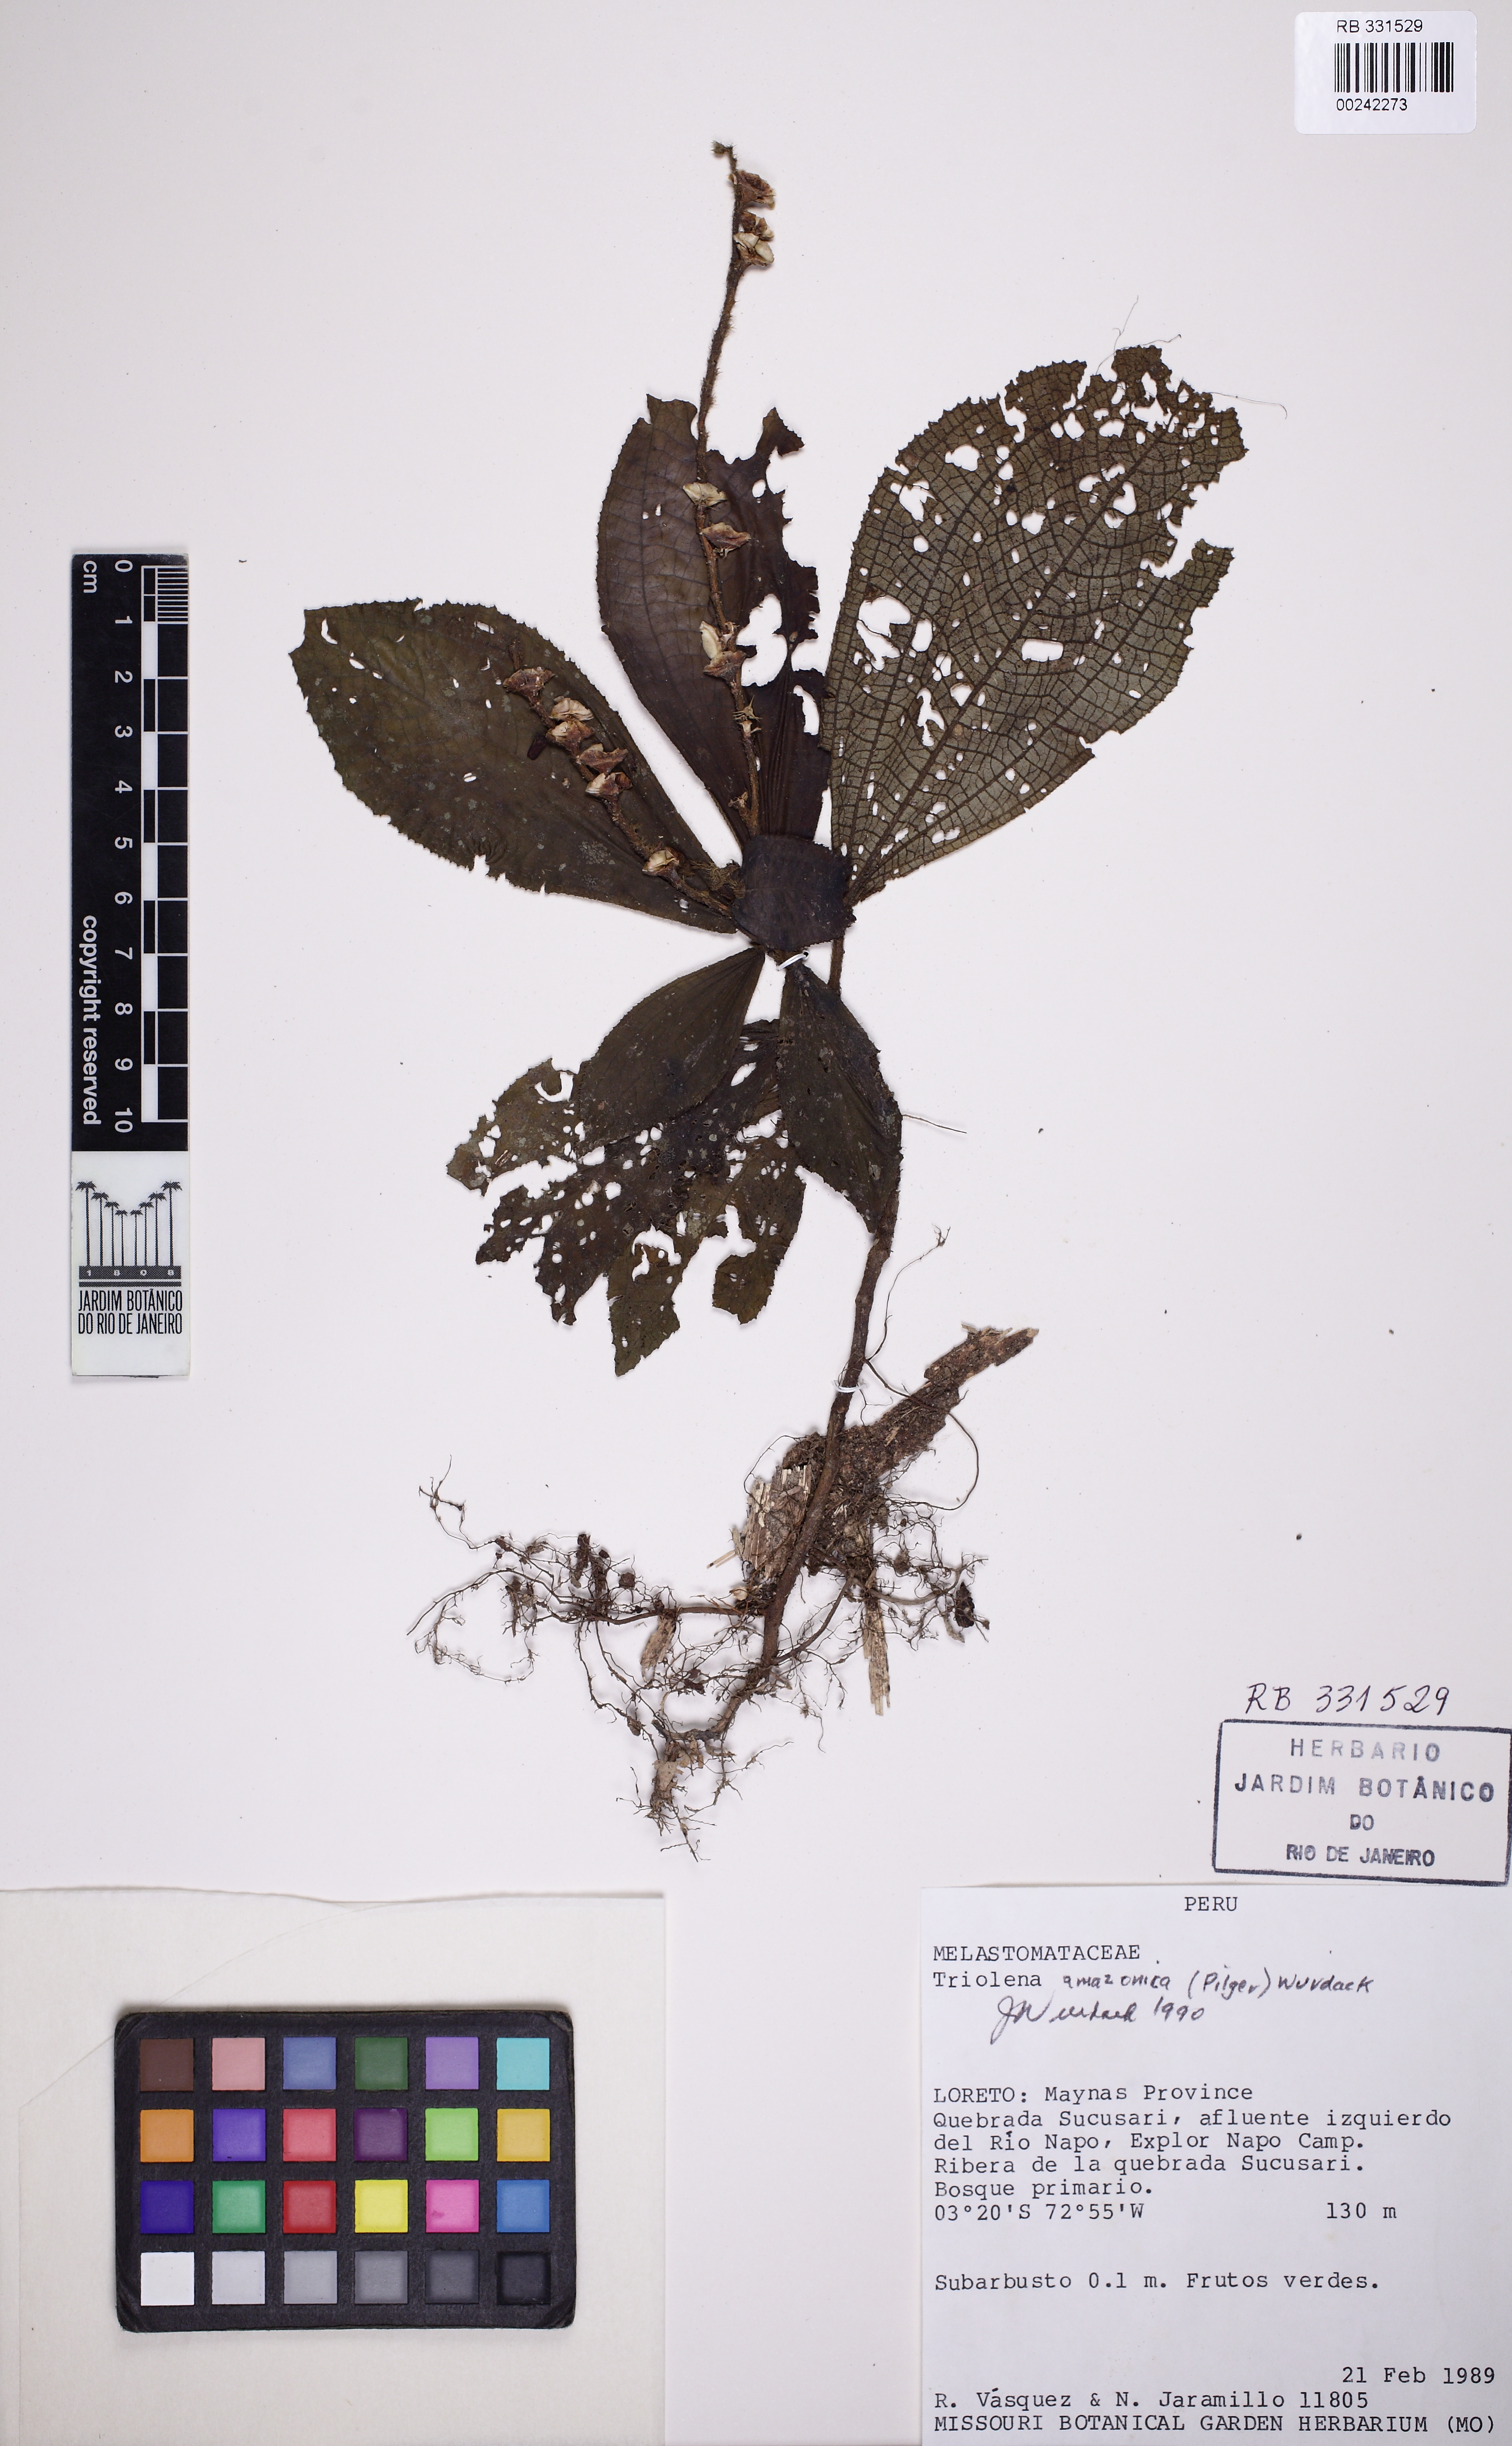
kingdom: Plantae
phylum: Tracheophyta
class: Magnoliopsida
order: Myrtales
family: Melastomataceae
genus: Triolena
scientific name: Triolena amazonica
